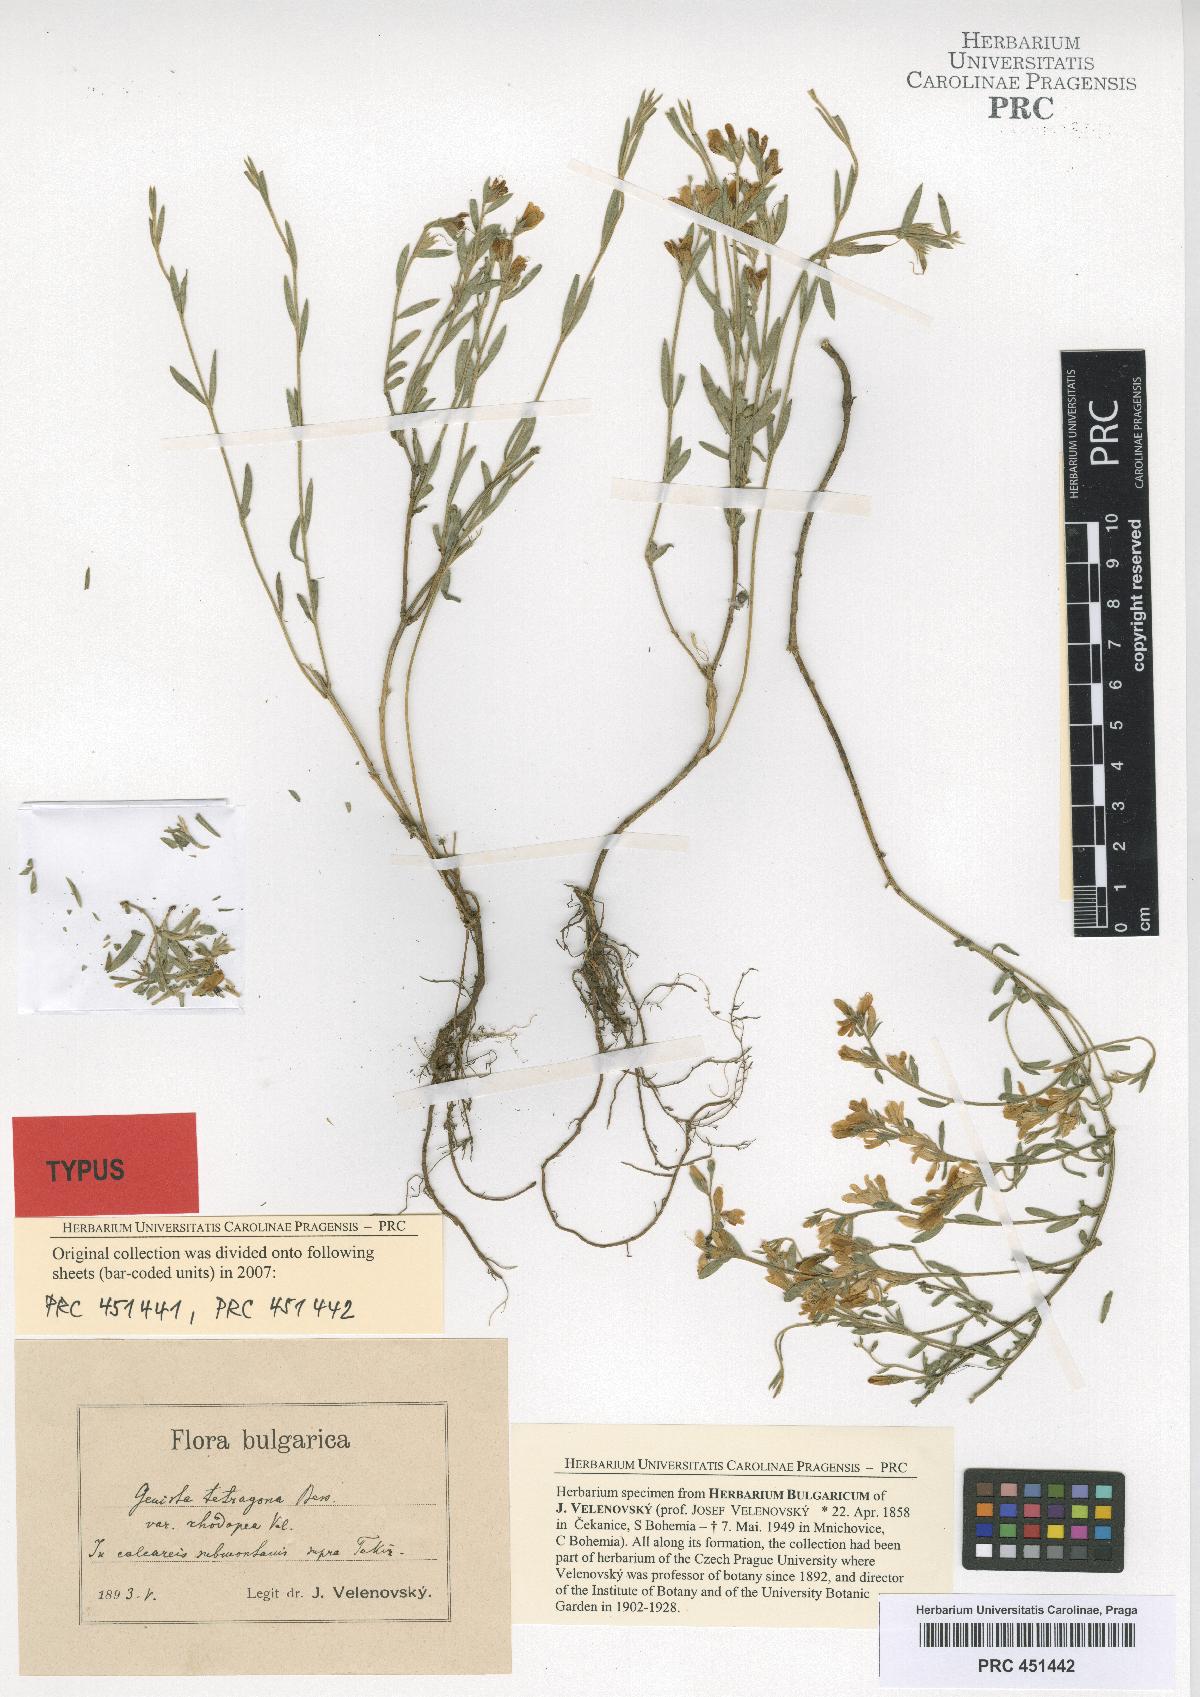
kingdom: Plantae
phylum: Tracheophyta
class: Magnoliopsida
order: Fabales
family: Fabaceae
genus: Genista
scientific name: Genista tetragona
